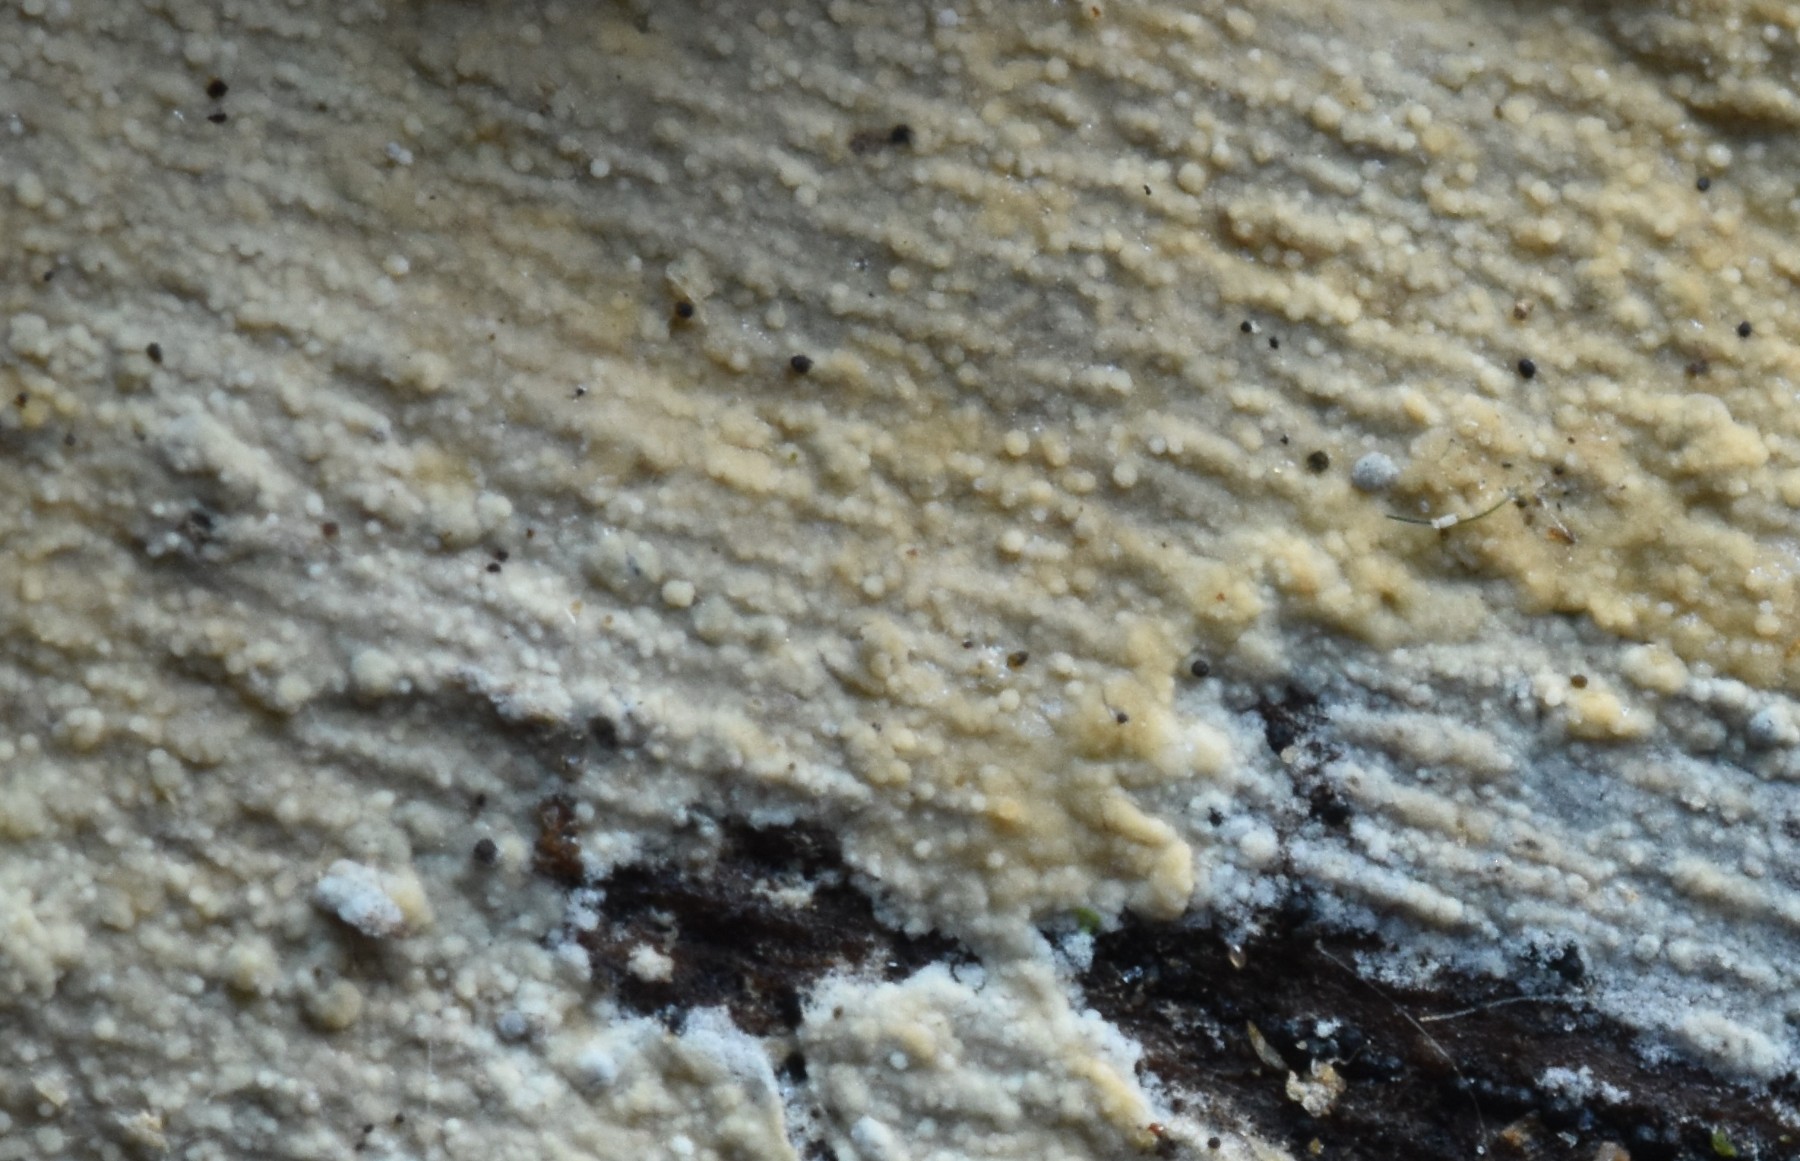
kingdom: Fungi
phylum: Basidiomycota
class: Agaricomycetes
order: Trechisporales
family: Hydnodontaceae
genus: Brevicellicium
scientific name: Brevicellicium olivascens
